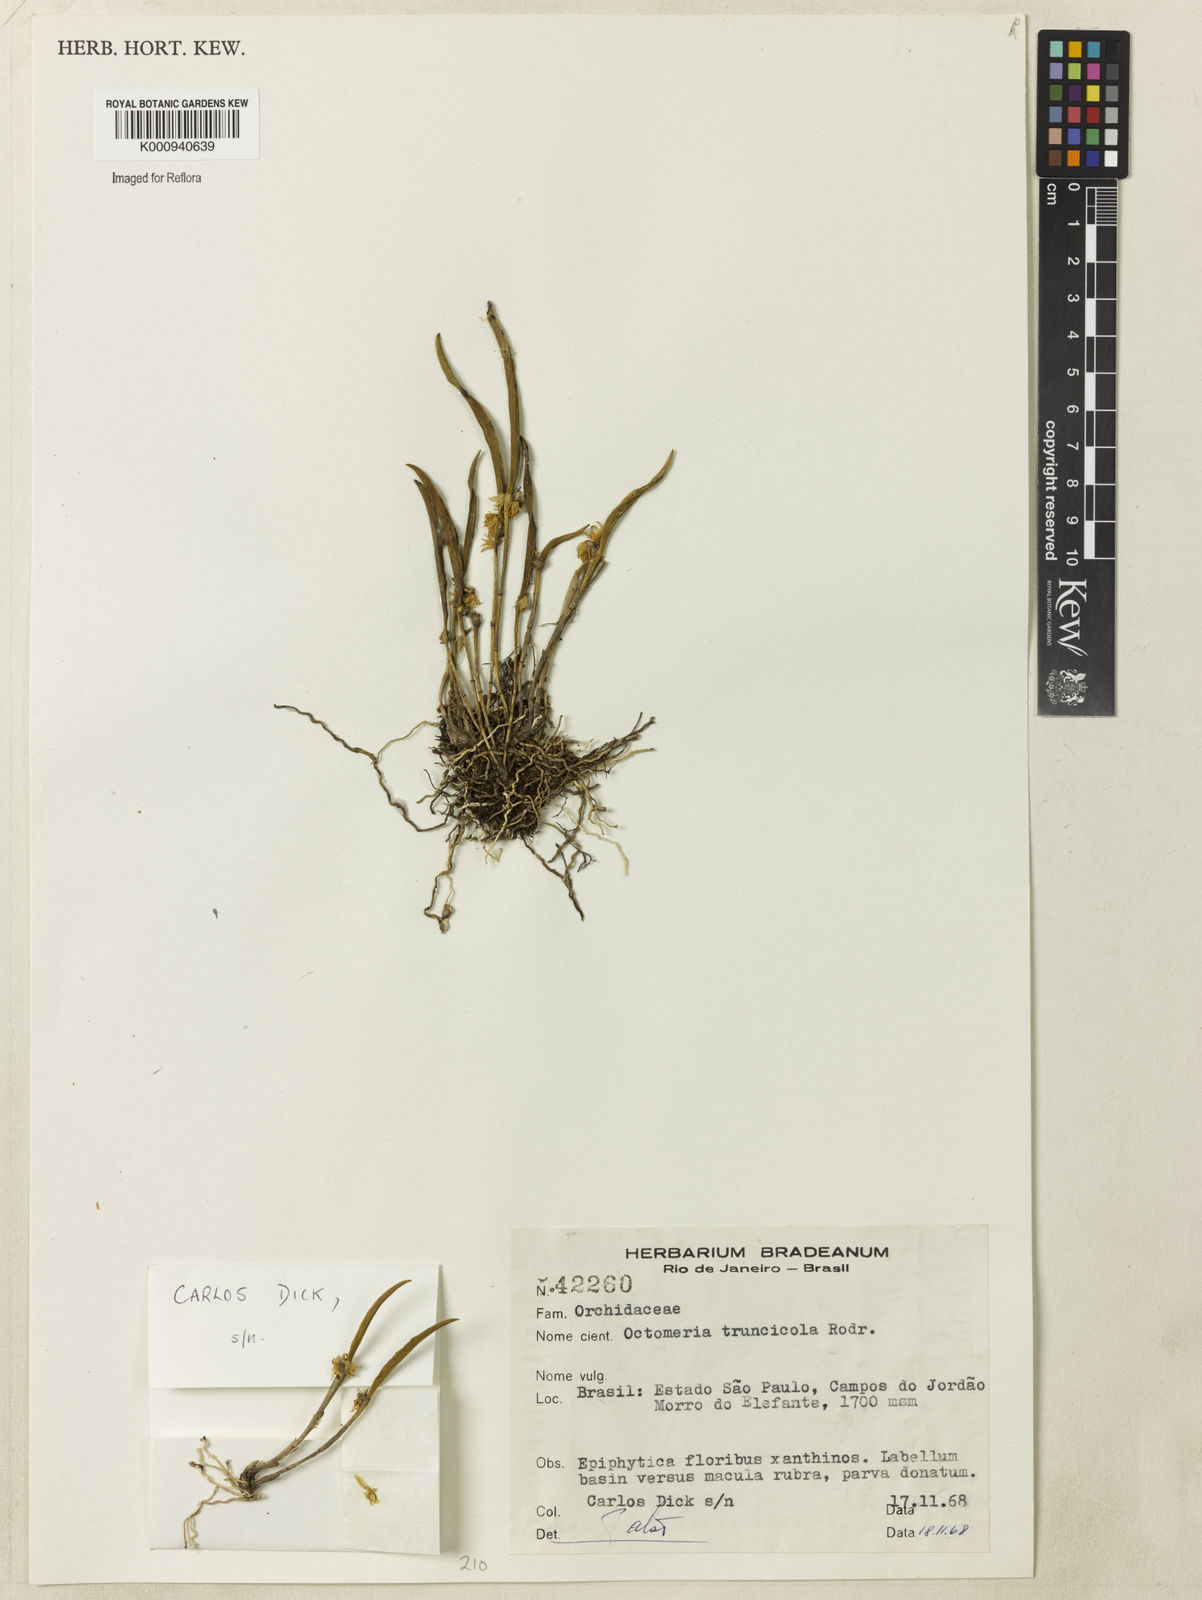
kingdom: Plantae
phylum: Tracheophyta
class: Liliopsida
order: Asparagales
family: Orchidaceae
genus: Octomeria
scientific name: Octomeria truncicola
